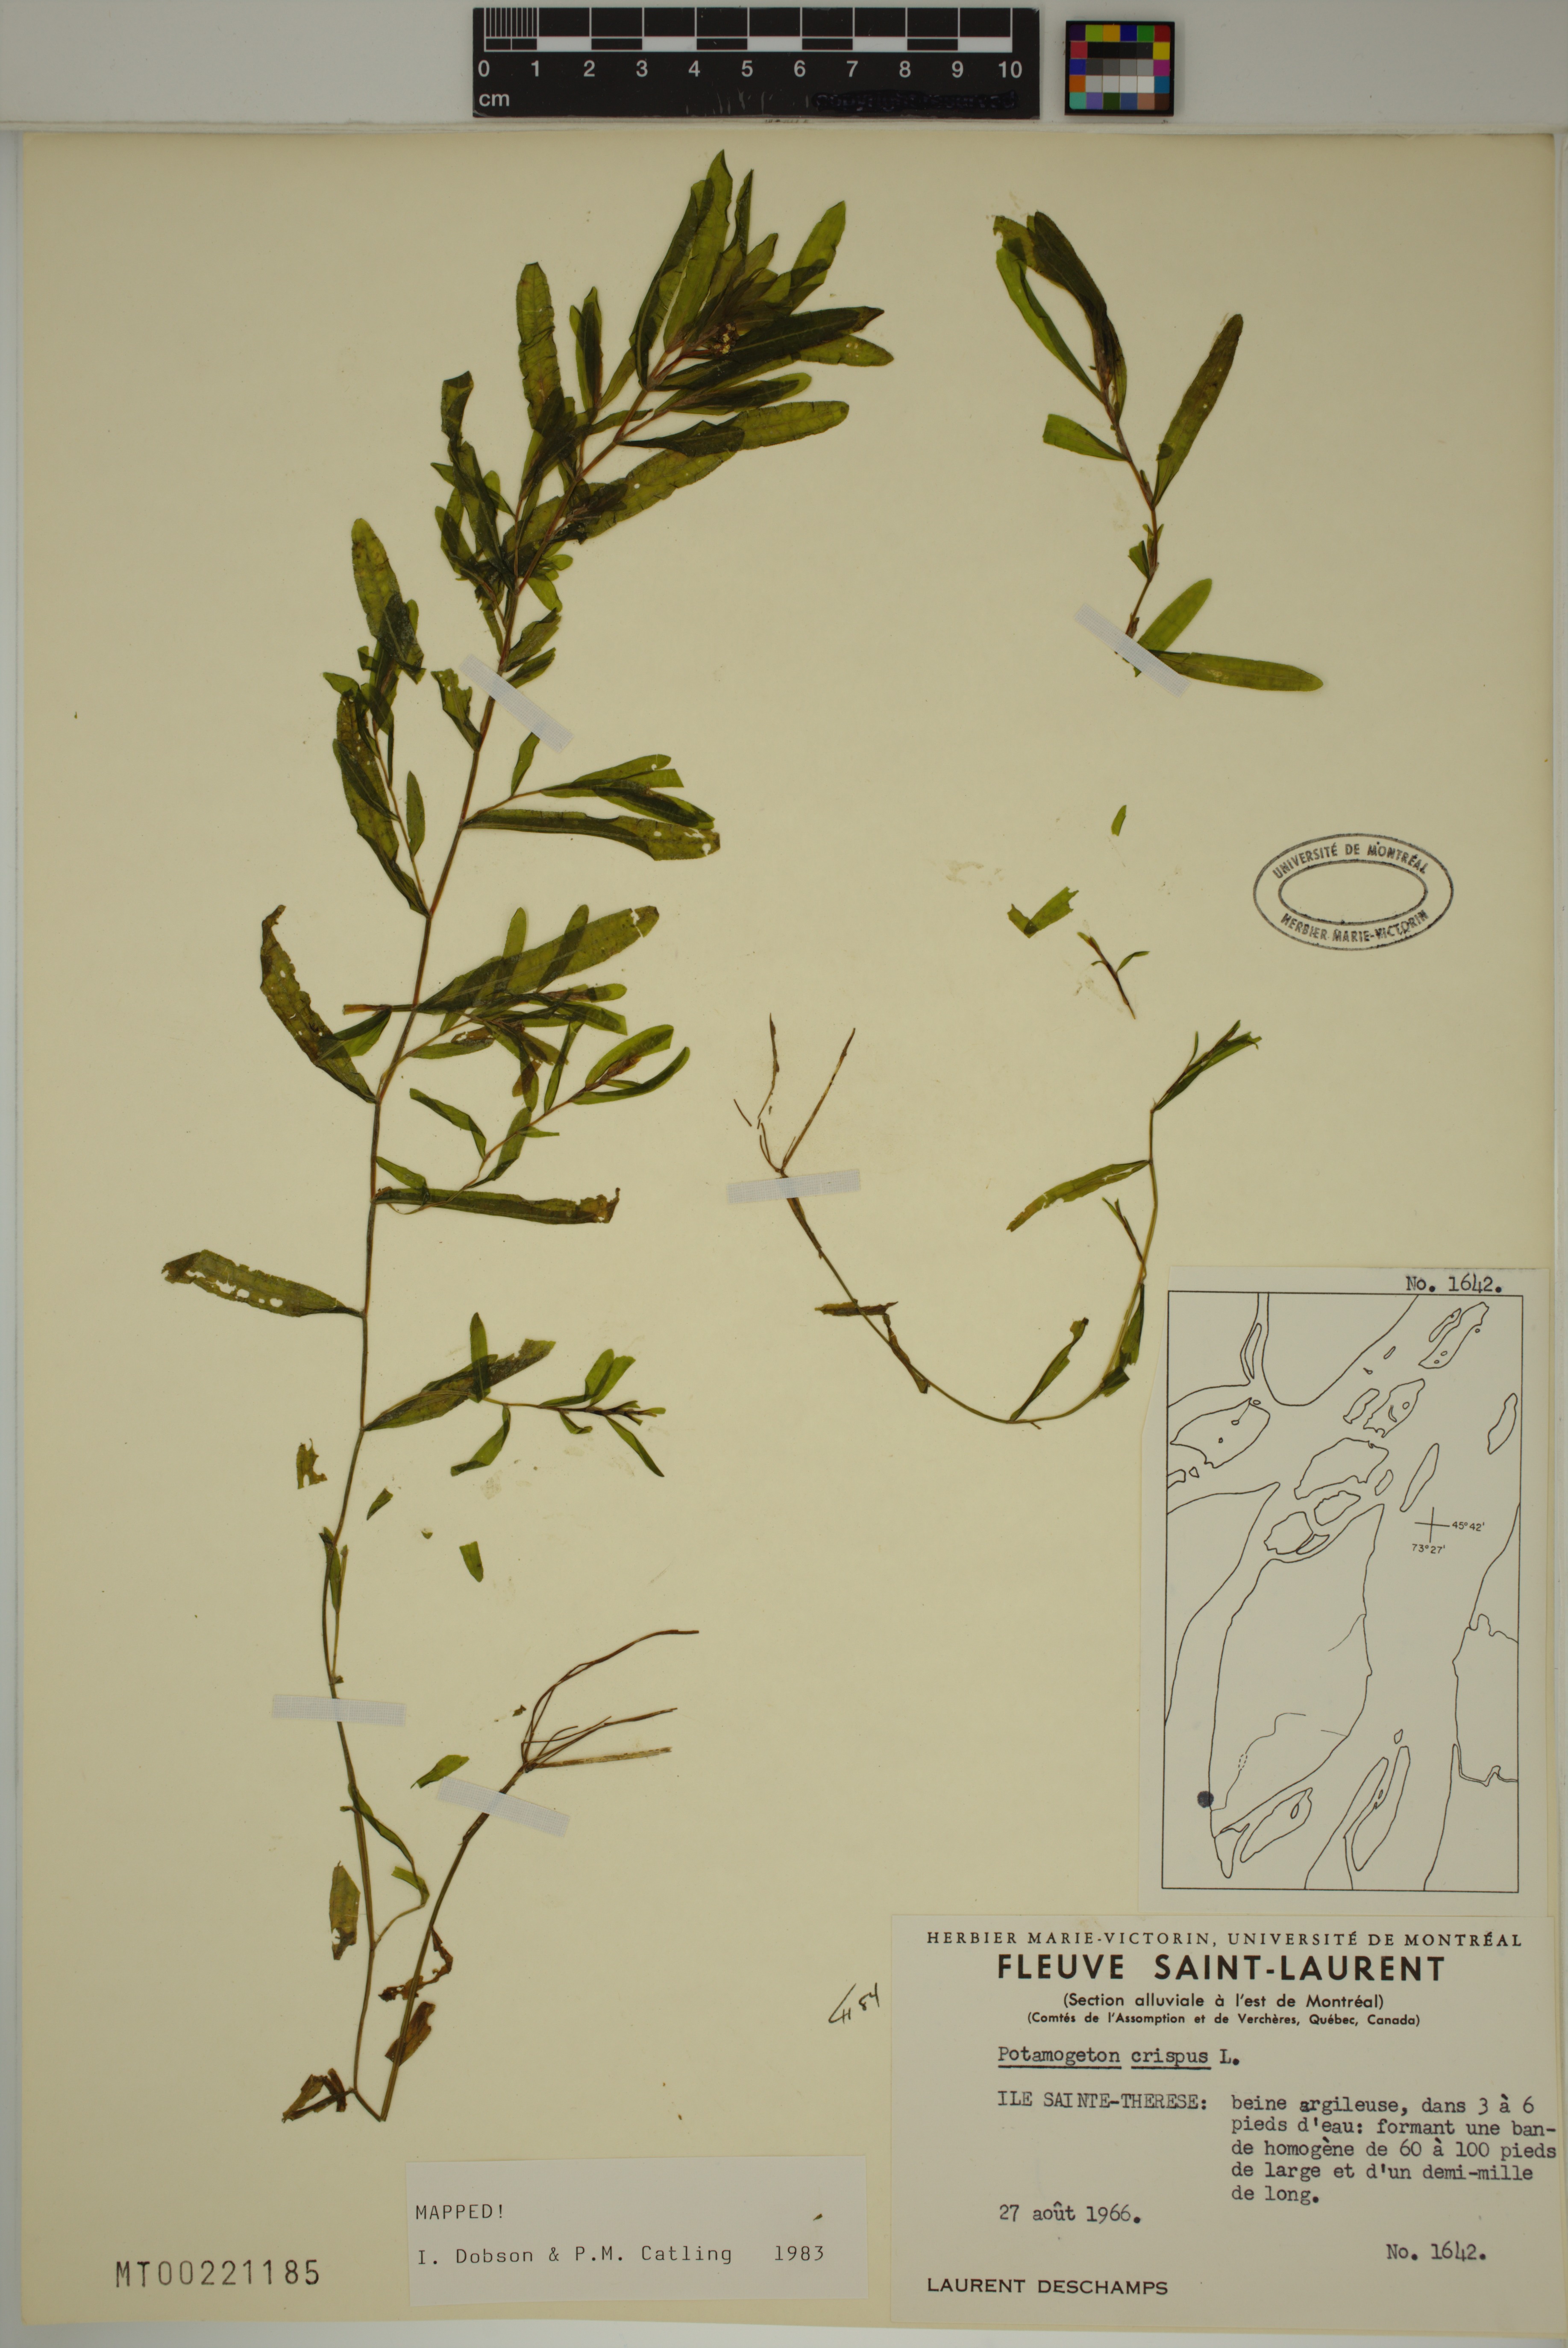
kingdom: Plantae
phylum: Tracheophyta
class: Liliopsida
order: Alismatales
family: Potamogetonaceae
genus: Potamogeton
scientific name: Potamogeton crispus
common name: Curled pondweed
